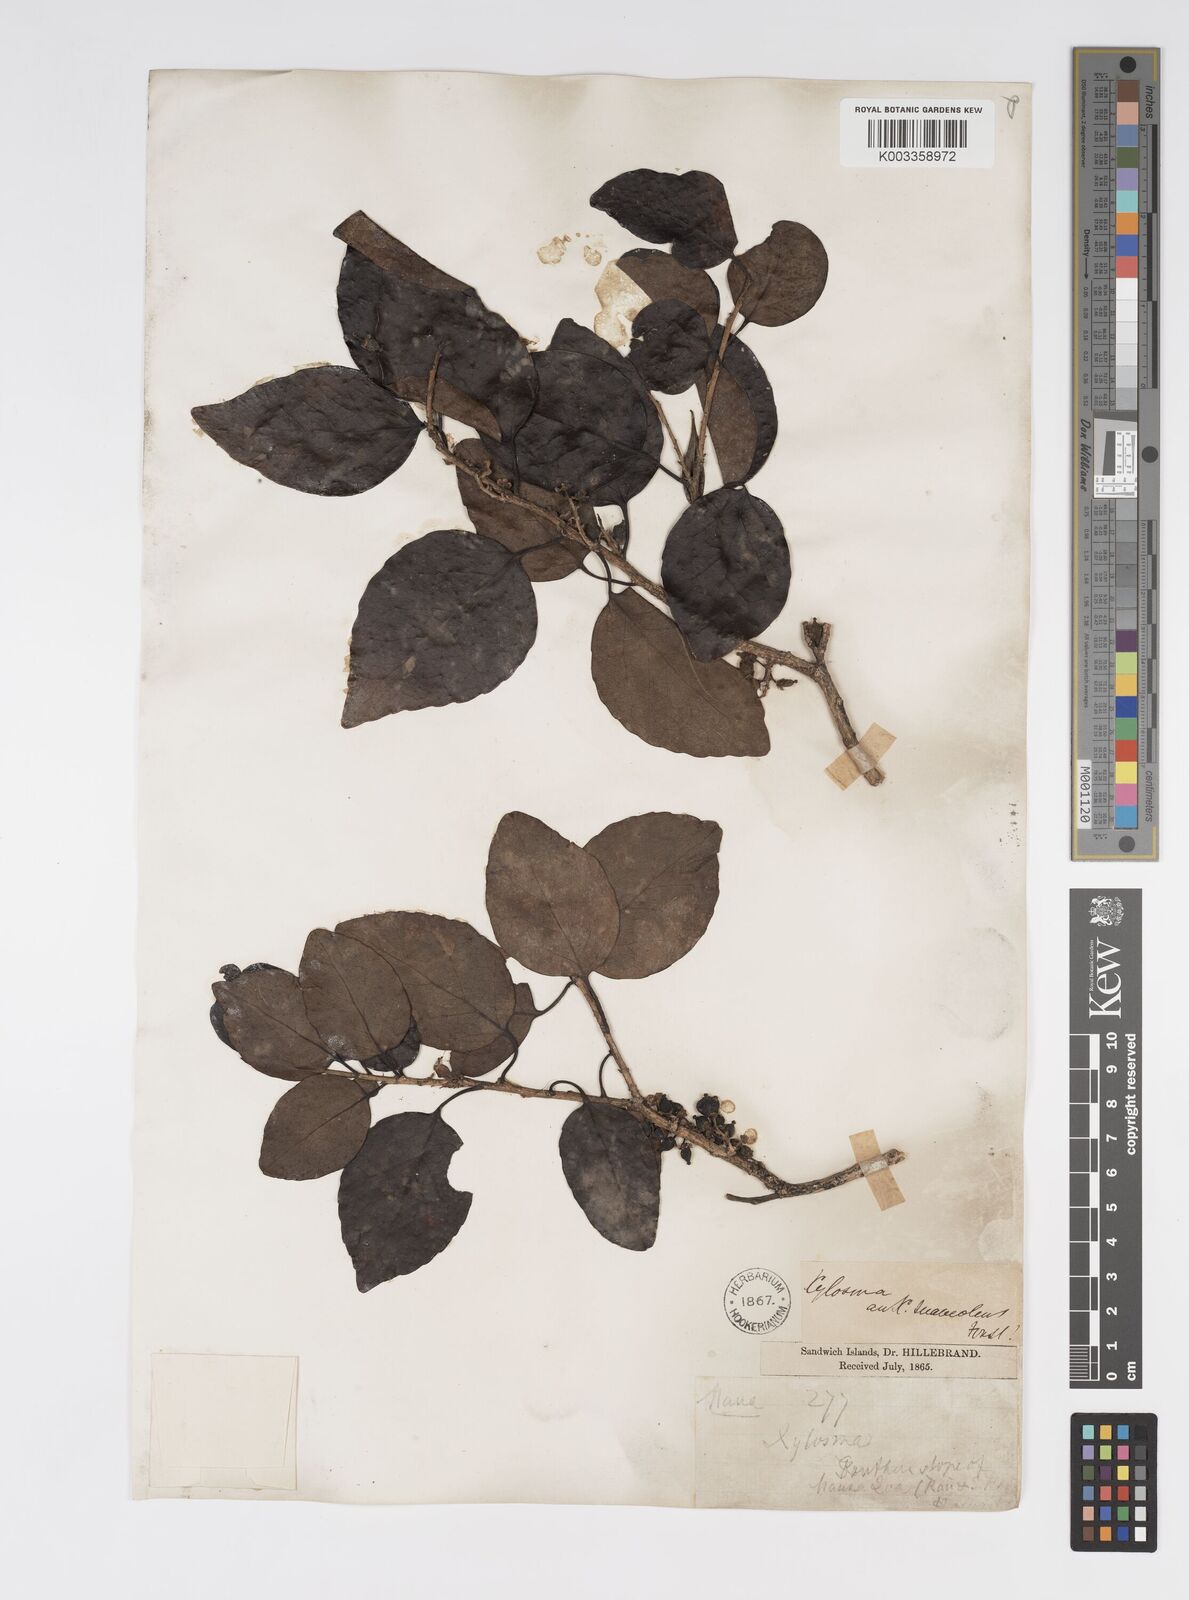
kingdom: Plantae
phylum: Tracheophyta
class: Magnoliopsida
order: Malpighiales
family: Salicaceae
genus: Xylosma
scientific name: Xylosma hawaiense
